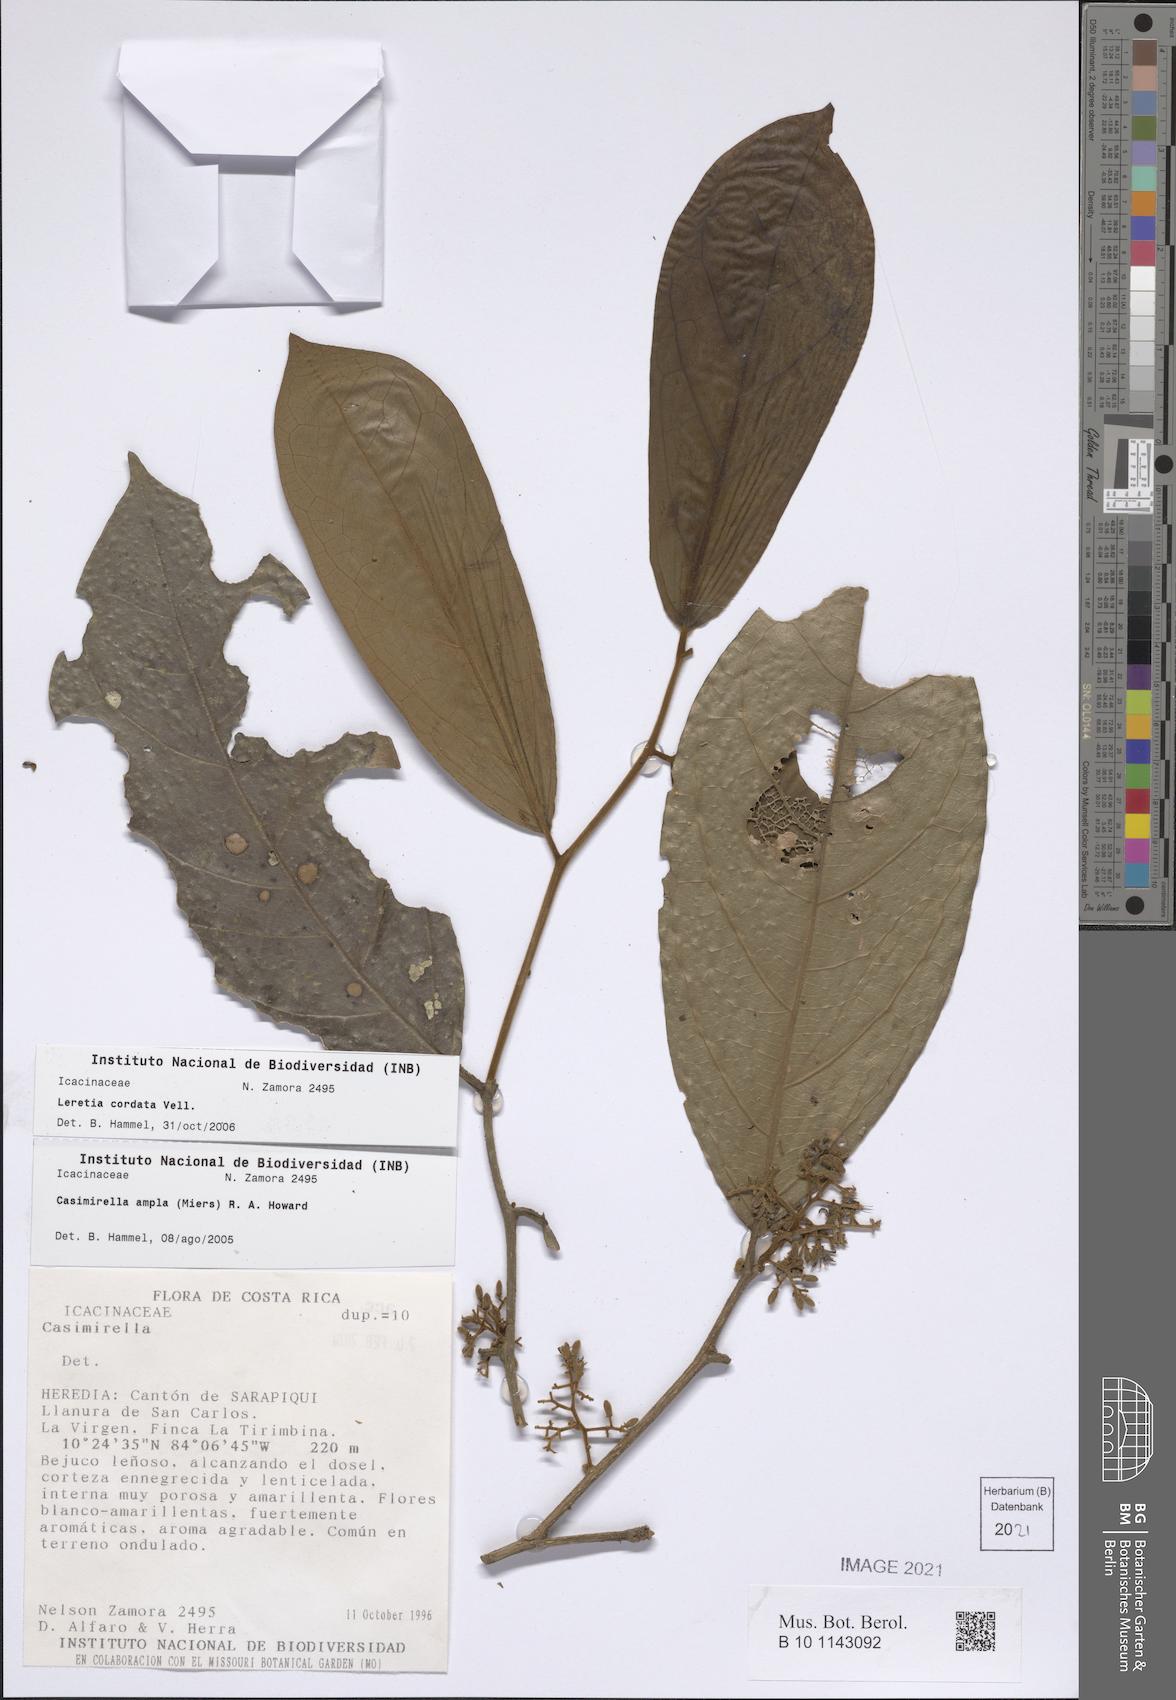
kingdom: Plantae
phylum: Tracheophyta
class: Magnoliopsida
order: Icacinales
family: Icacinaceae
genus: Leretia
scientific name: Leretia cordata
